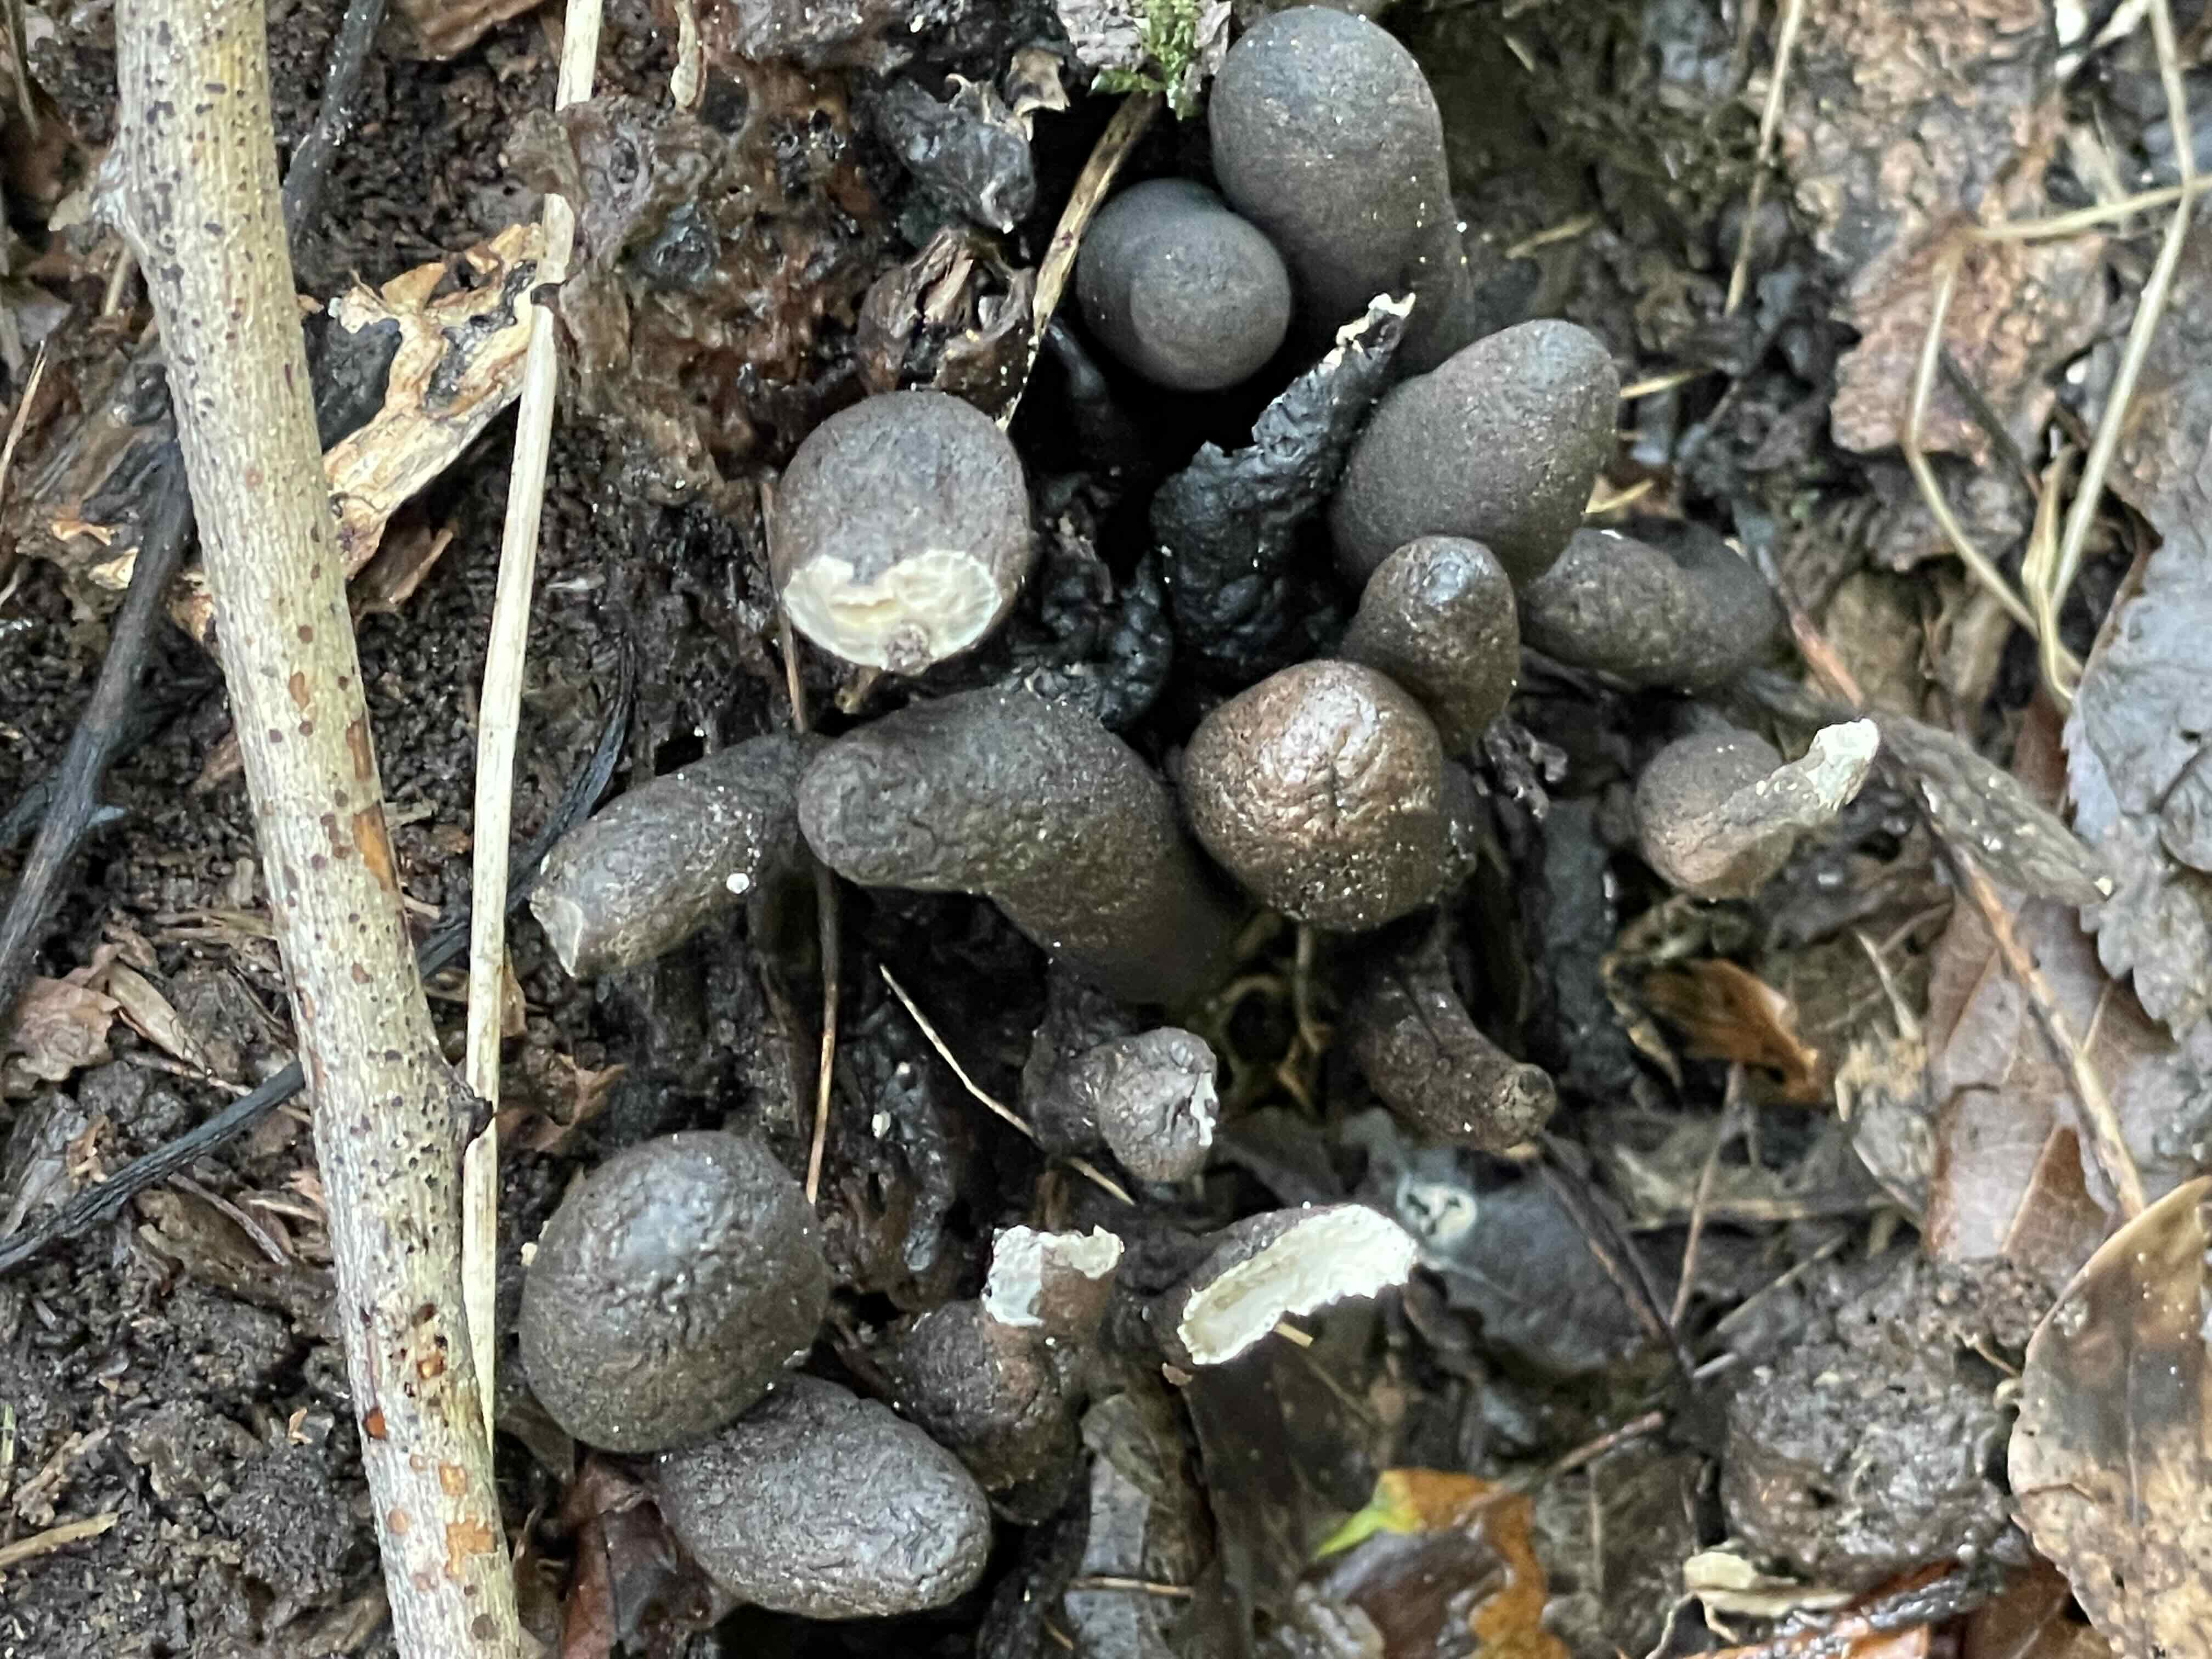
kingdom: Fungi
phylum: Ascomycota
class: Sordariomycetes
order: Xylariales
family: Xylariaceae
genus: Xylaria
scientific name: Xylaria polymorpha
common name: kølle-stødsvamp
